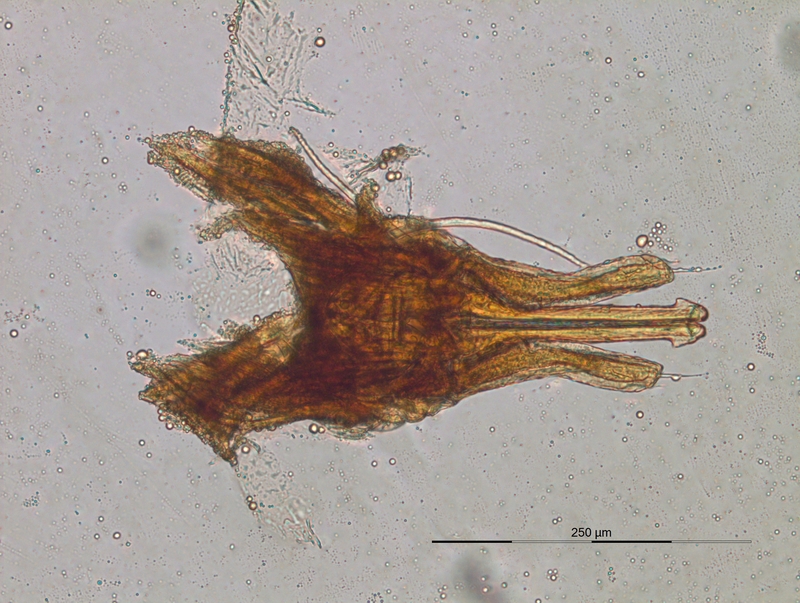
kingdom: Animalia
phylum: Arthropoda
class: Diplopoda
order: Julida
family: Nemasomatidae
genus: Isobates
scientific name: Isobates varicornis
